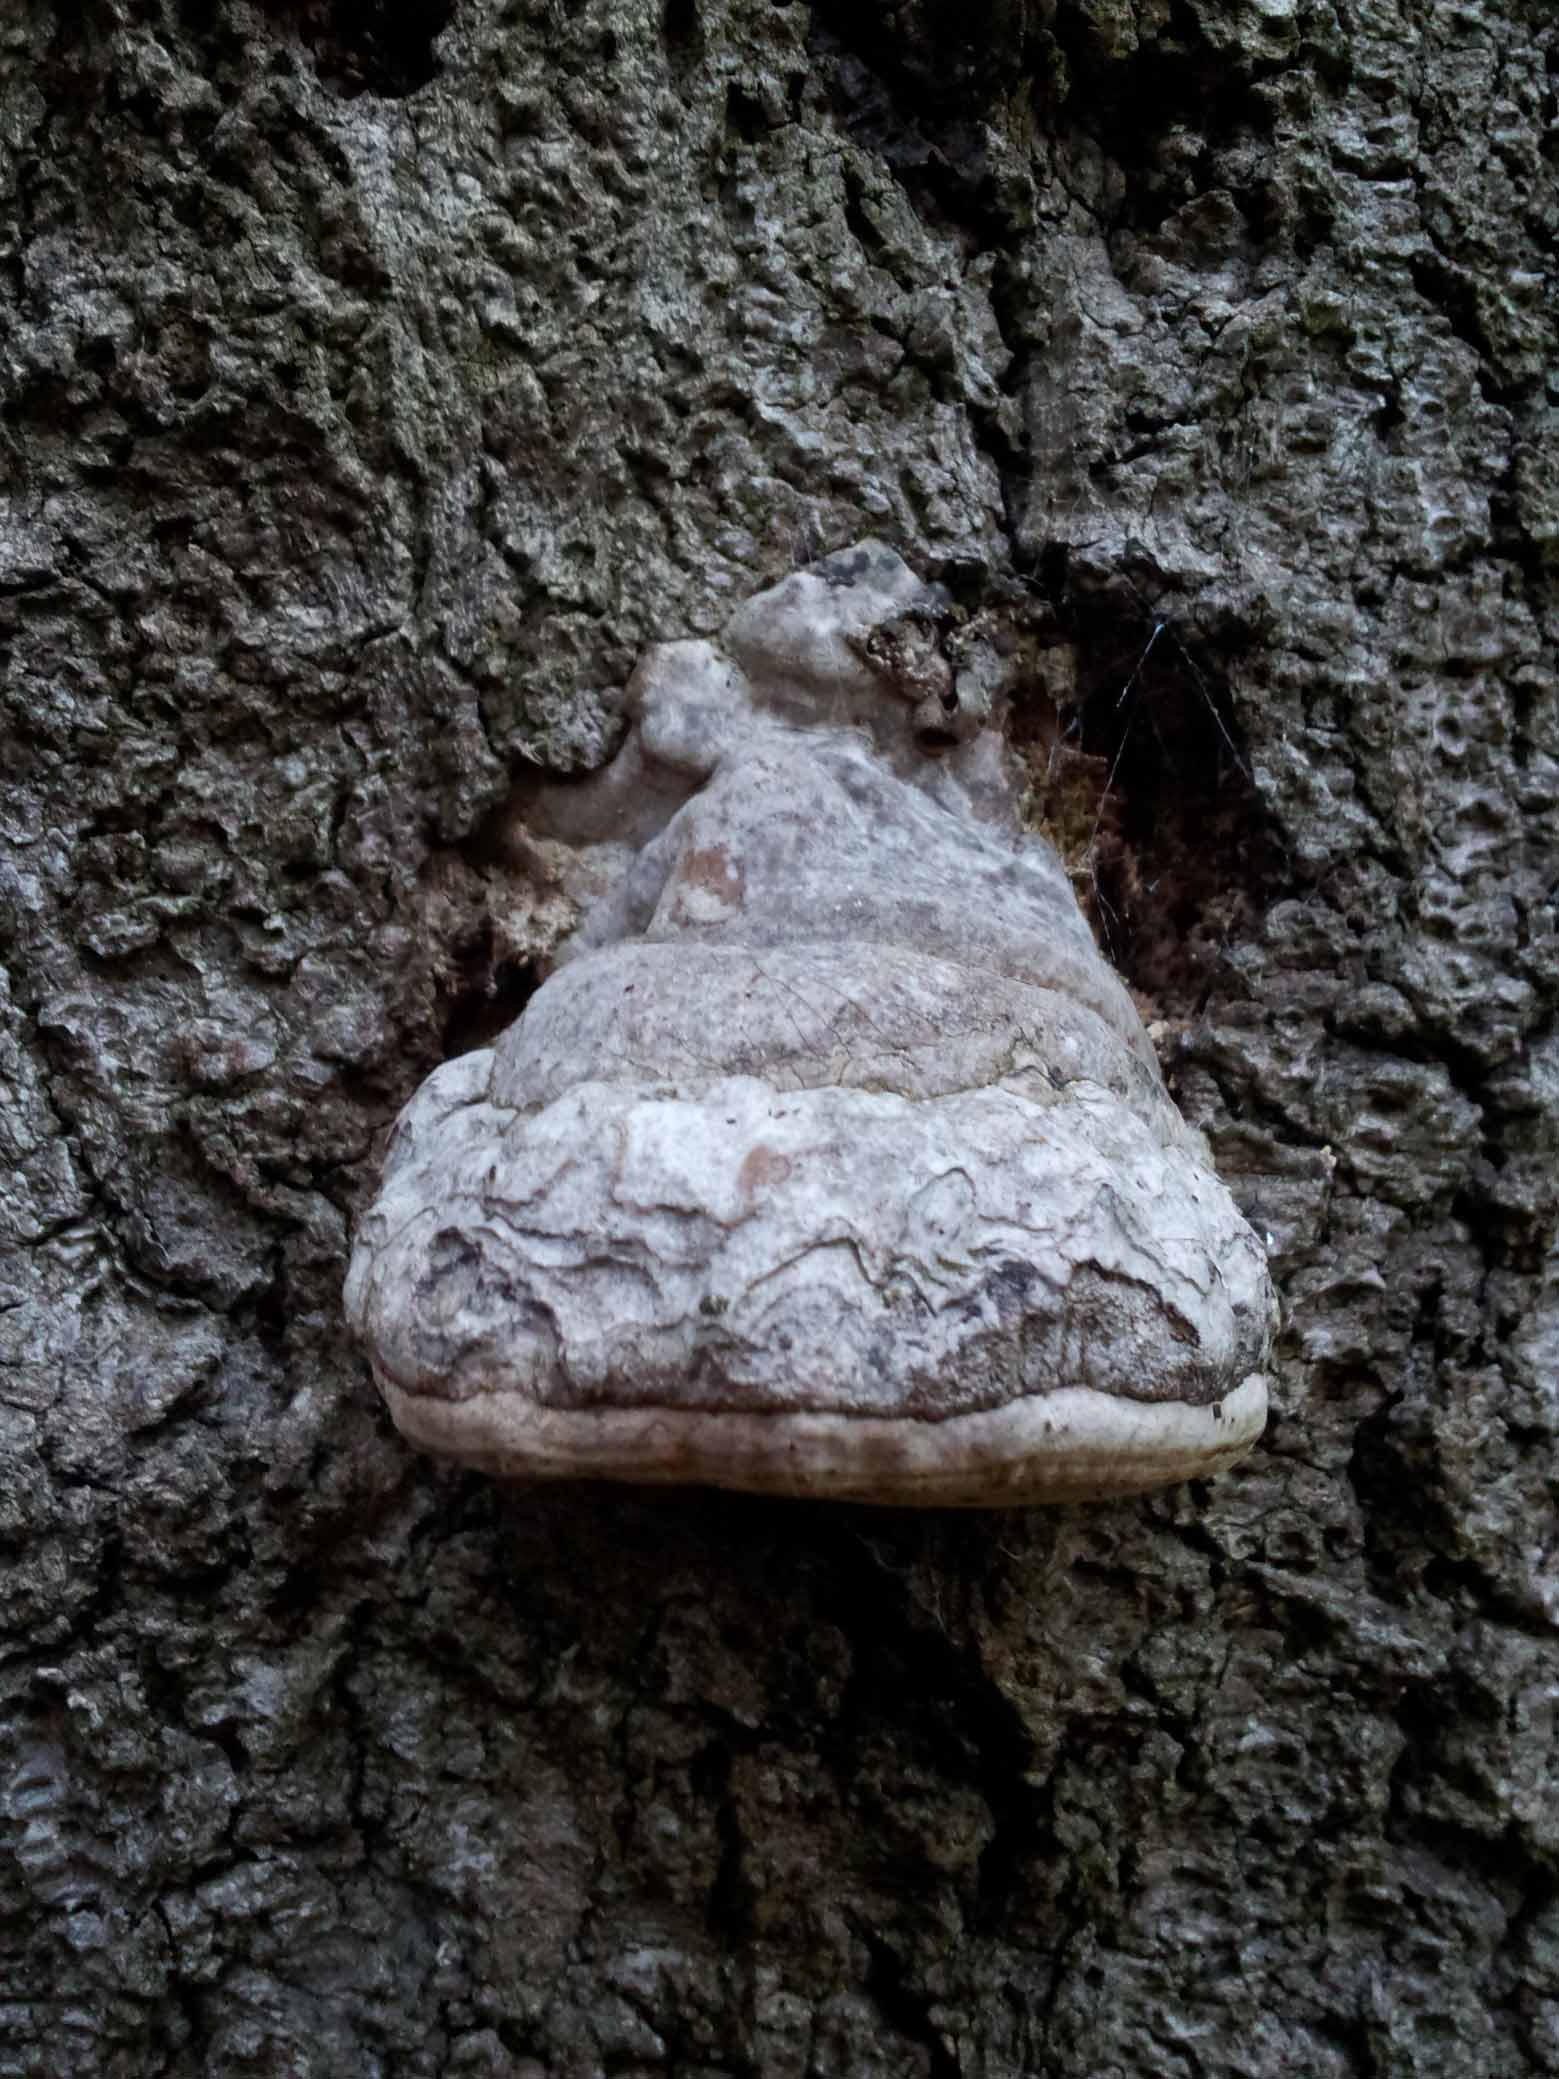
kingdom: Fungi
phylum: Basidiomycota
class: Agaricomycetes
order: Polyporales
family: Polyporaceae
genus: Fomes
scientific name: Fomes fomentarius
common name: tøndersvamp
